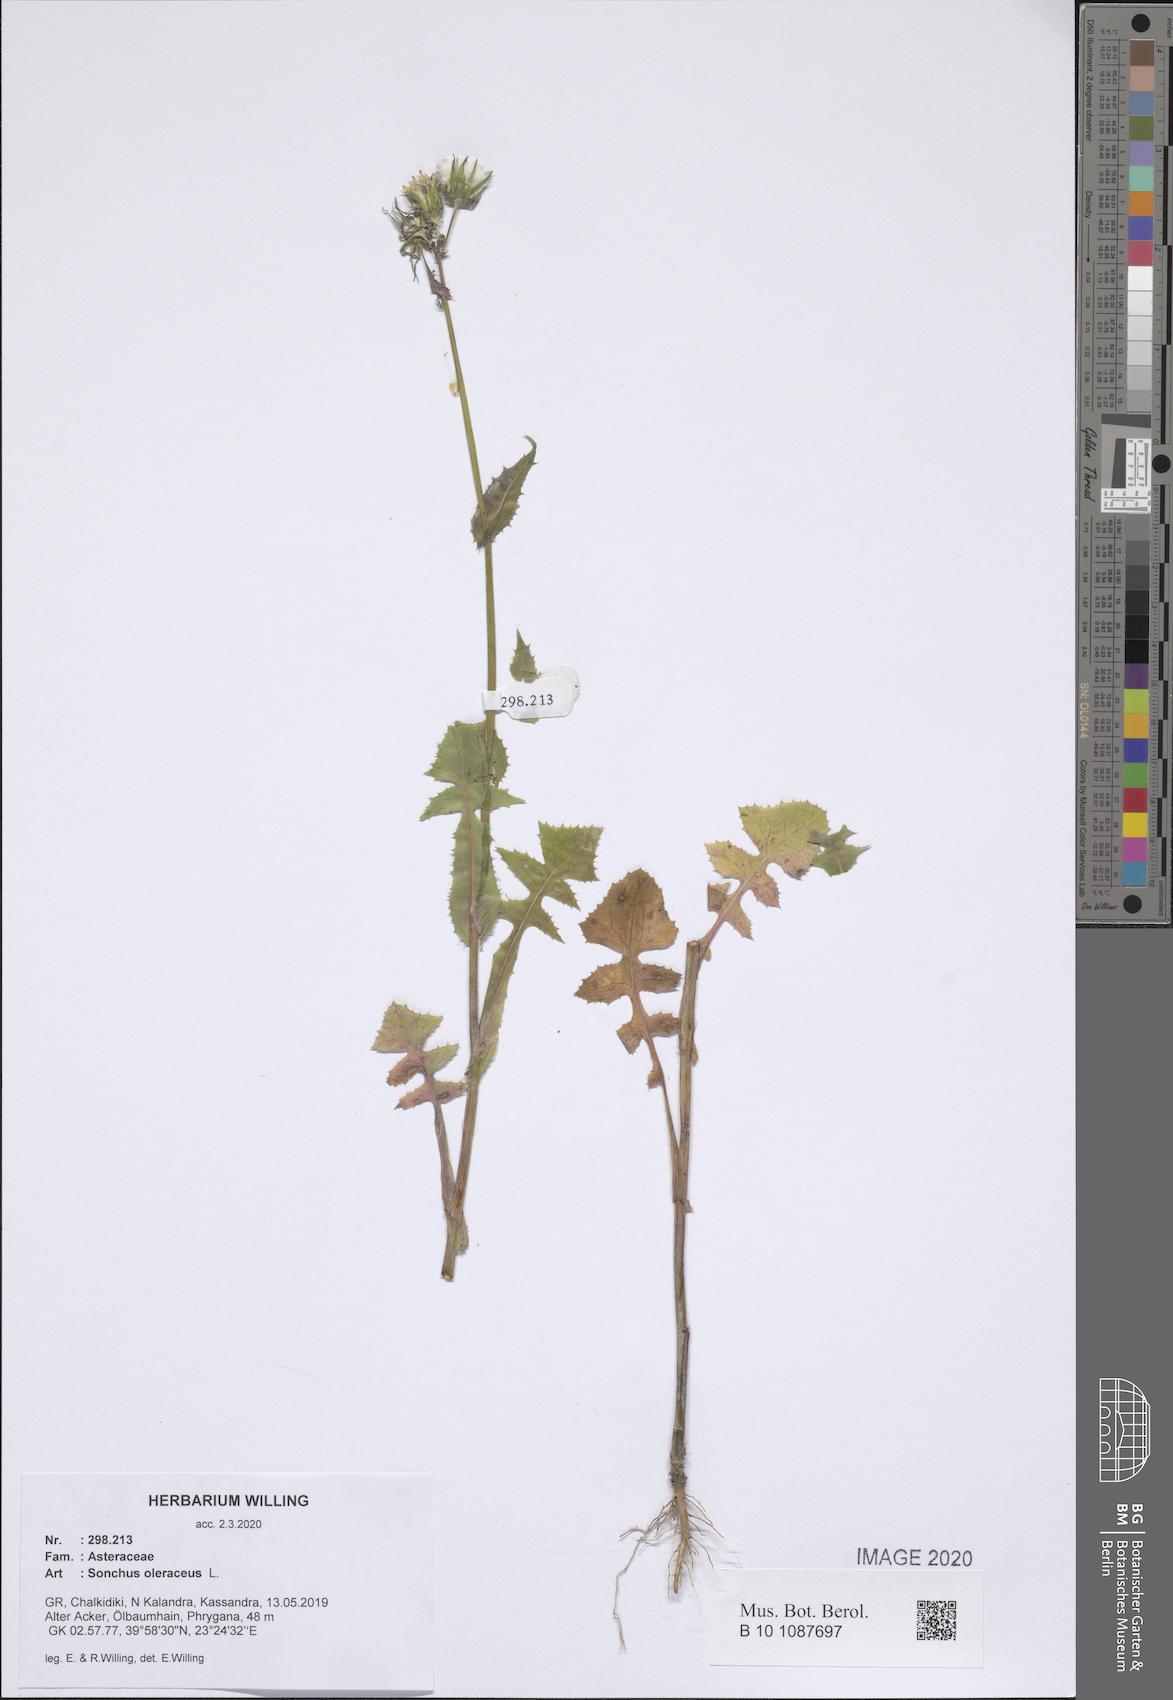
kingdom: Plantae
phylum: Tracheophyta
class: Magnoliopsida
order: Asterales
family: Asteraceae
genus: Sonchus
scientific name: Sonchus oleraceus
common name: Common sowthistle
